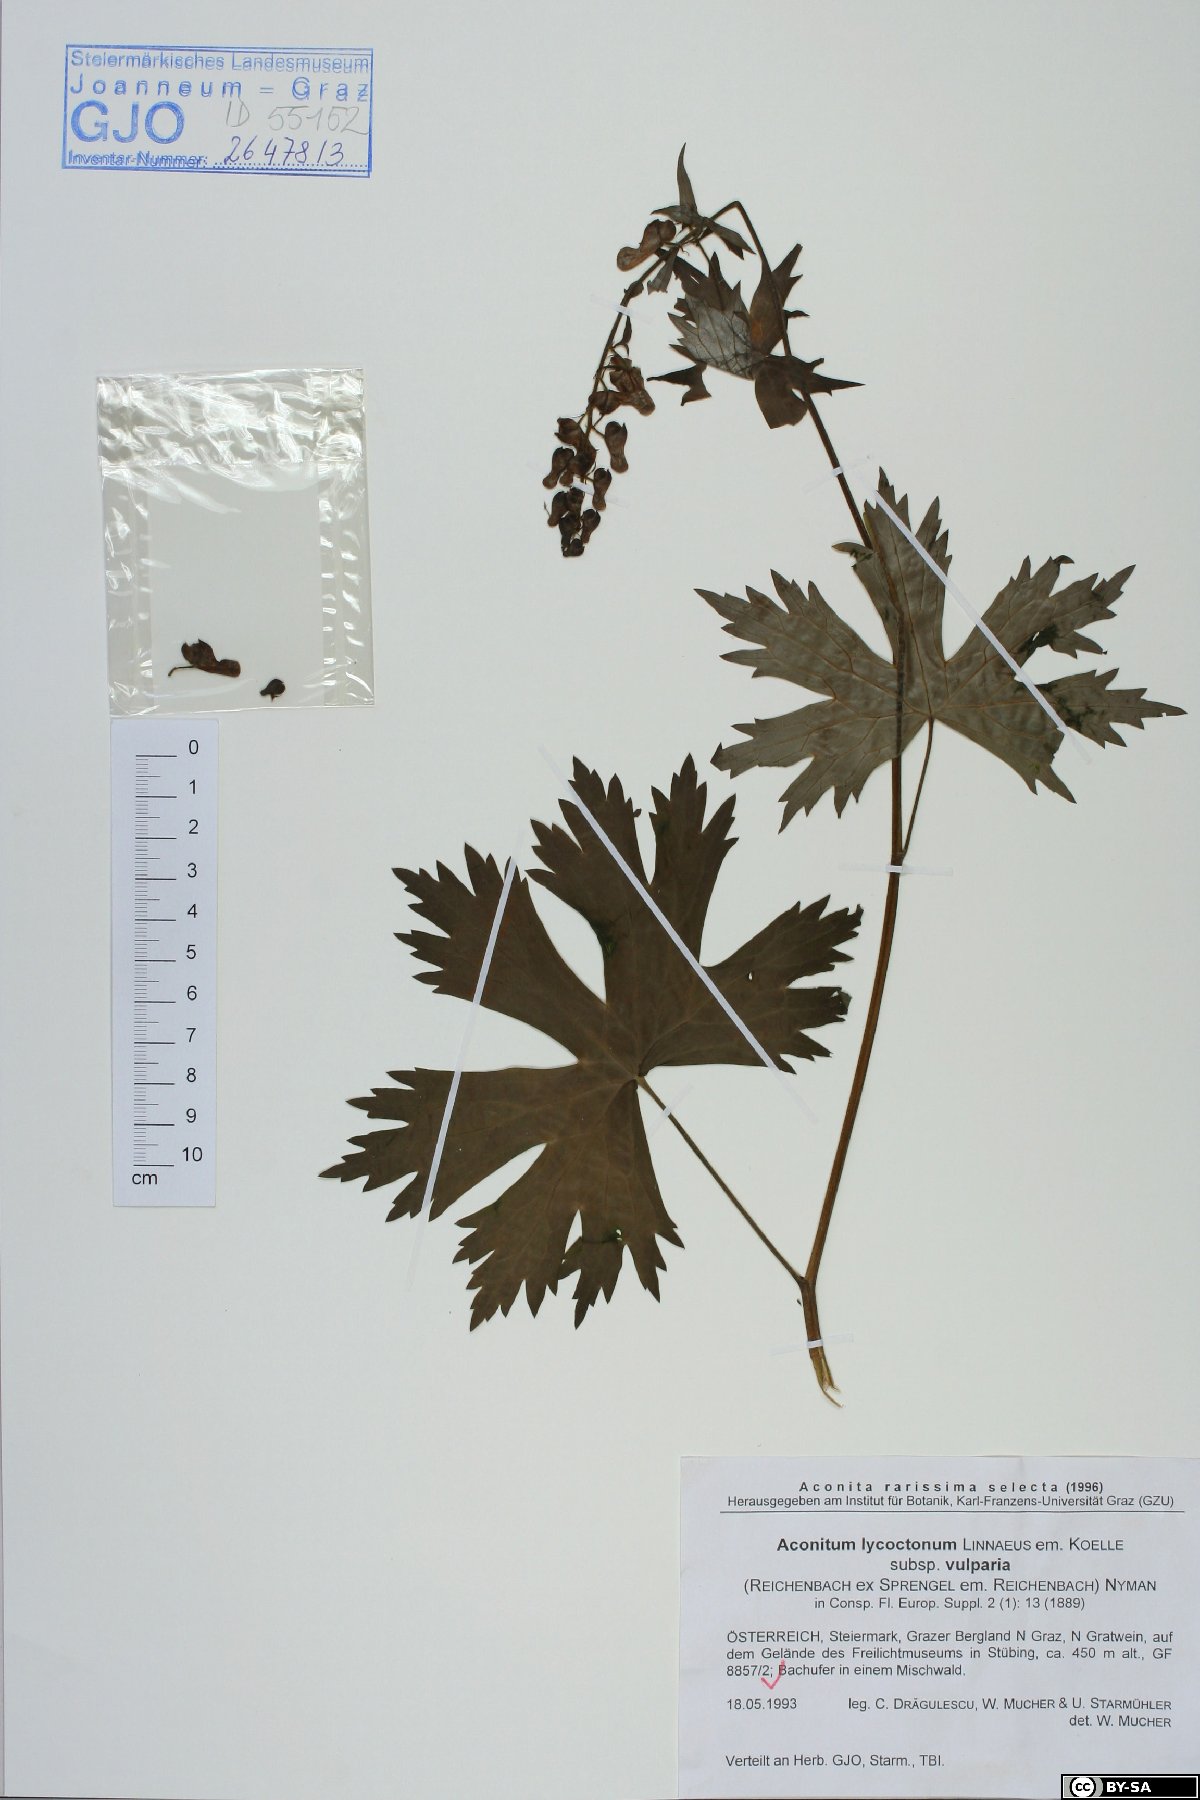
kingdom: Plantae
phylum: Tracheophyta
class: Magnoliopsida
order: Ranunculales
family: Ranunculaceae
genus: Aconitum
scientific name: Aconitum lycoctonum
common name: Wolf's-bane
